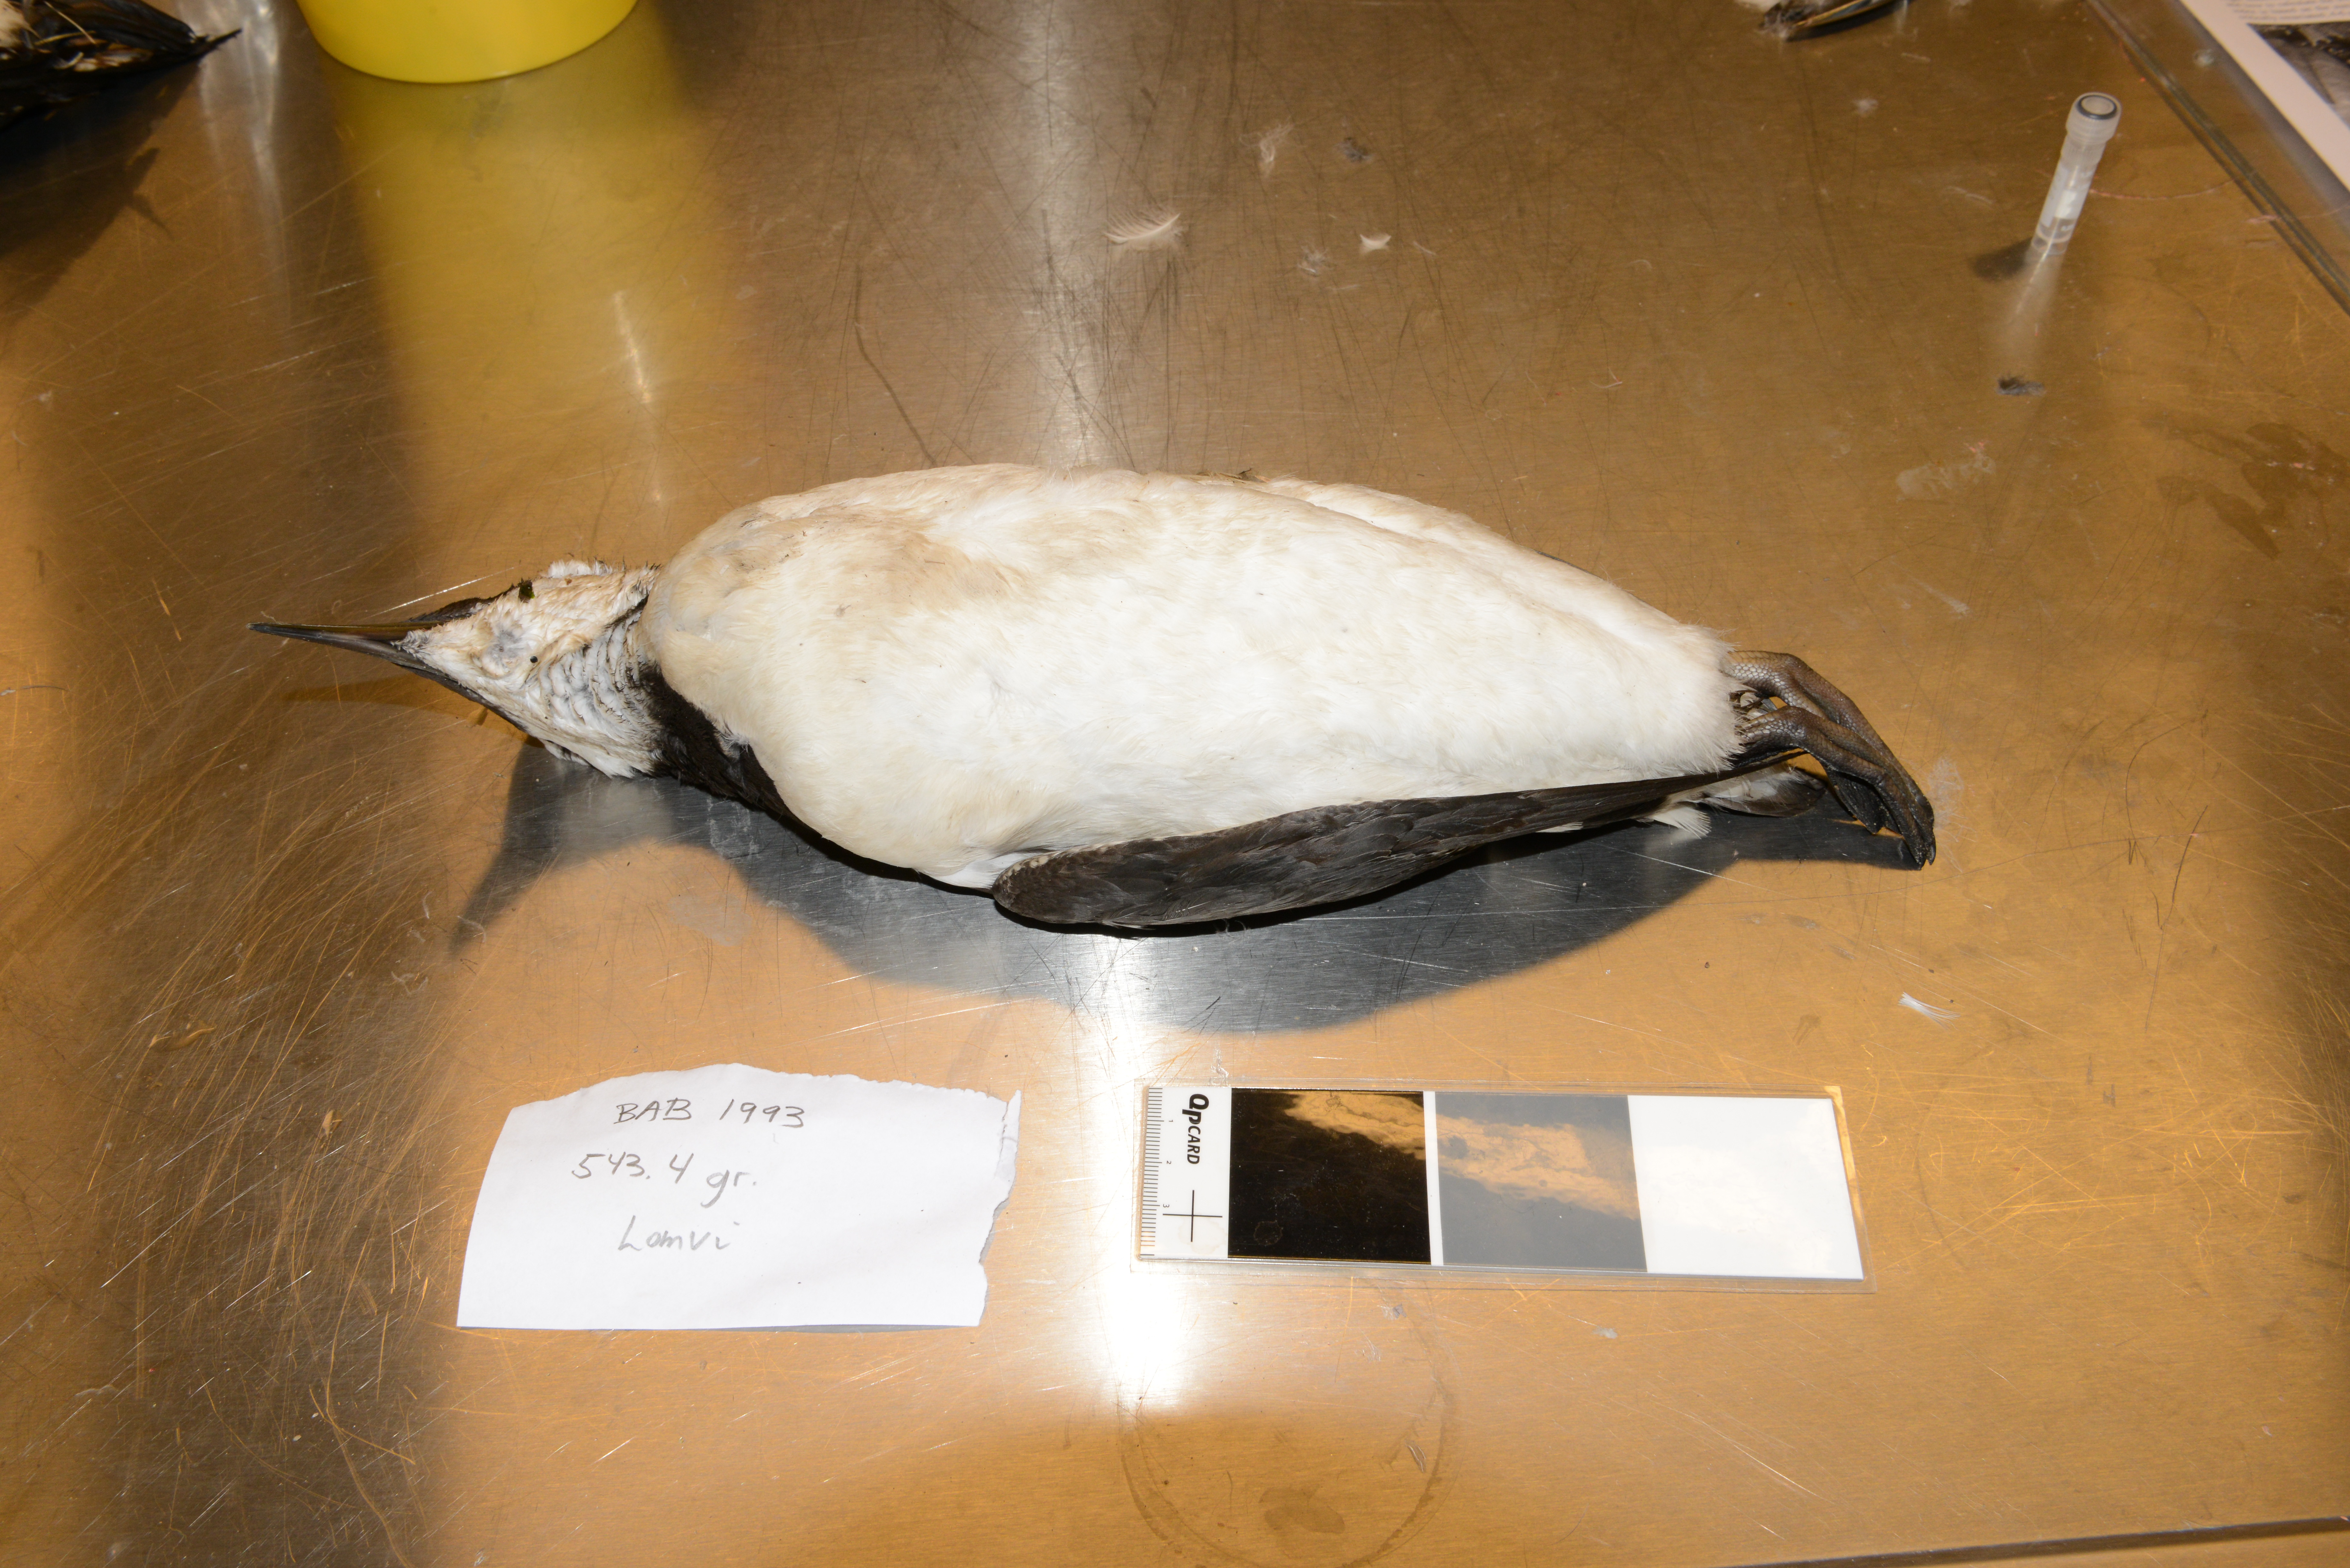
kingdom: Animalia
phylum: Chordata
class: Aves
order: Charadriiformes
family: Alcidae
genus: Uria
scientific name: Uria aalge
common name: Common murre
